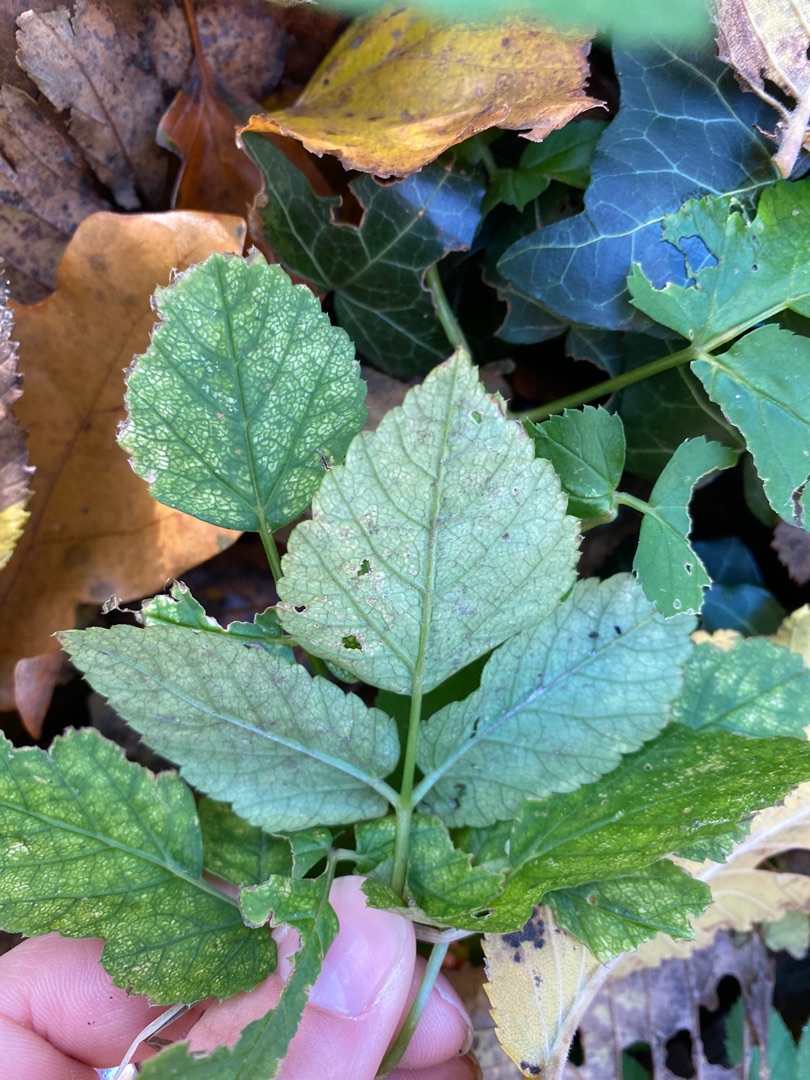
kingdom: Plantae
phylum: Tracheophyta
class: Magnoliopsida
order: Apiales
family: Apiaceae
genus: Aegopodium
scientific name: Aegopodium podagraria
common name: Skvalderkål
